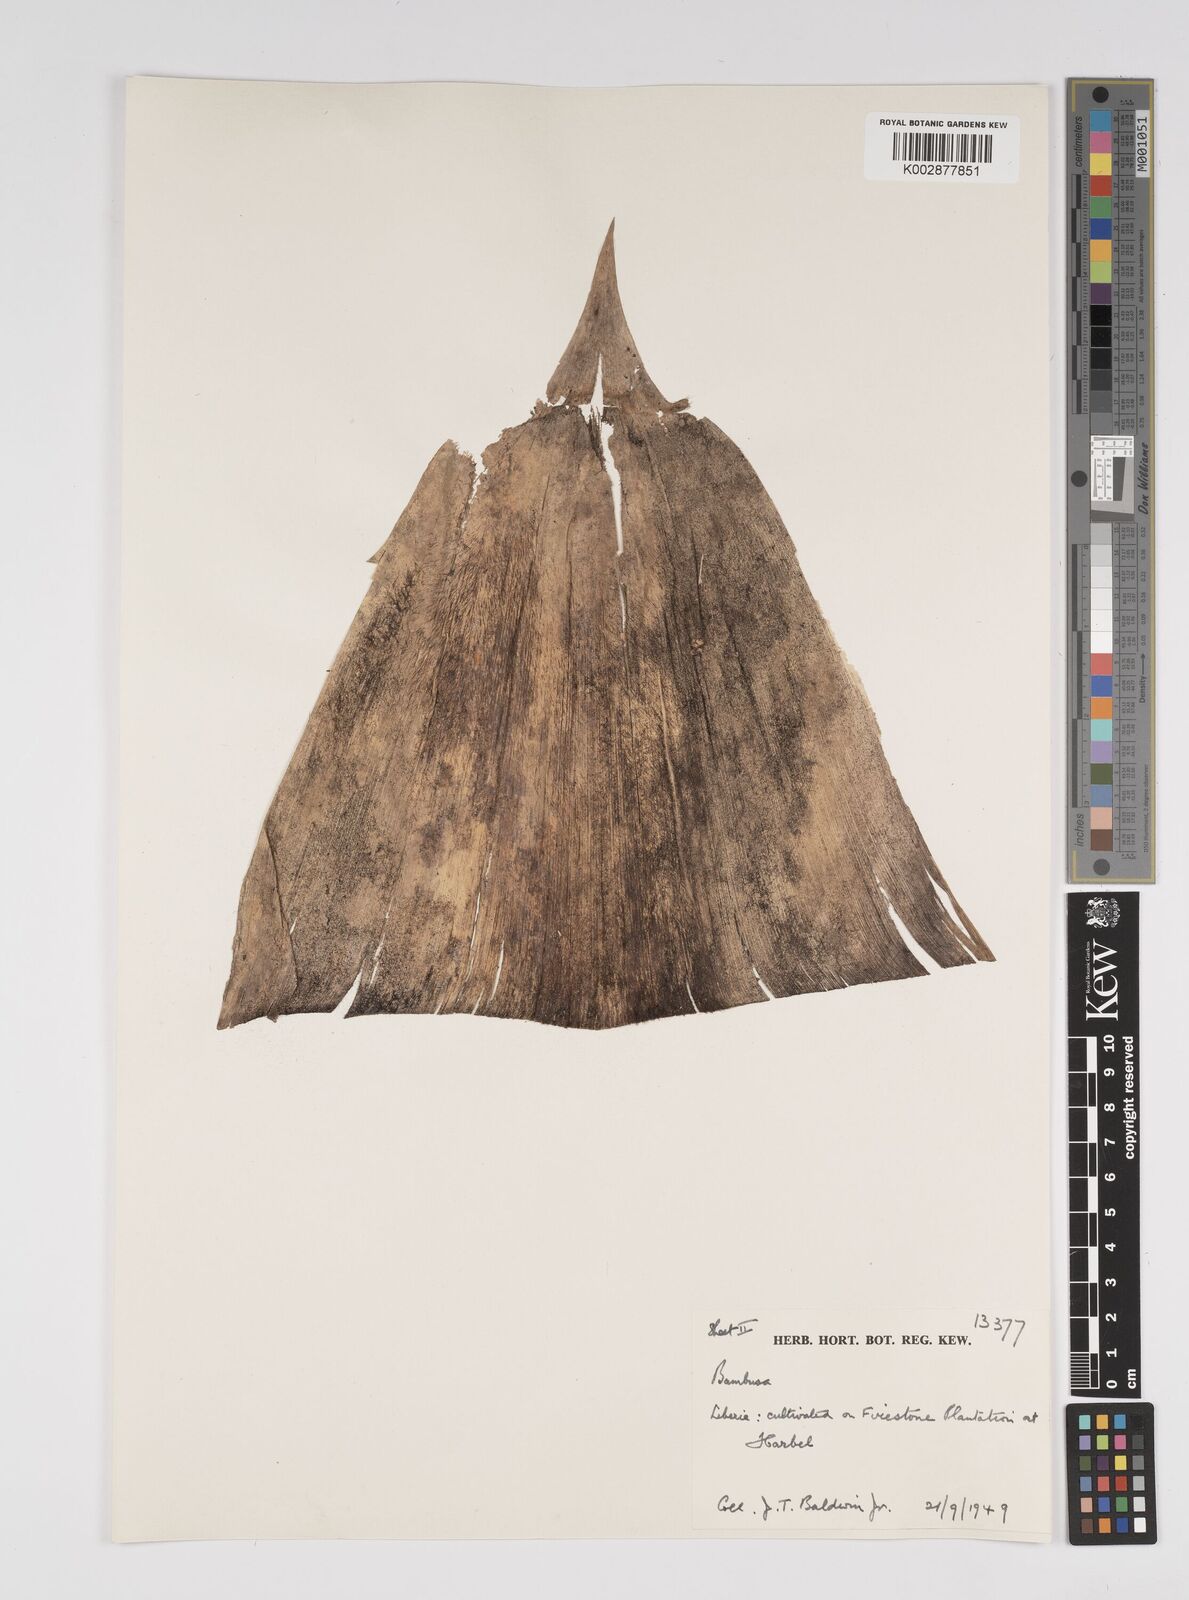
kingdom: Plantae
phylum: Tracheophyta
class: Liliopsida
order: Poales
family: Poaceae
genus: Bambusa
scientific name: Bambusa
